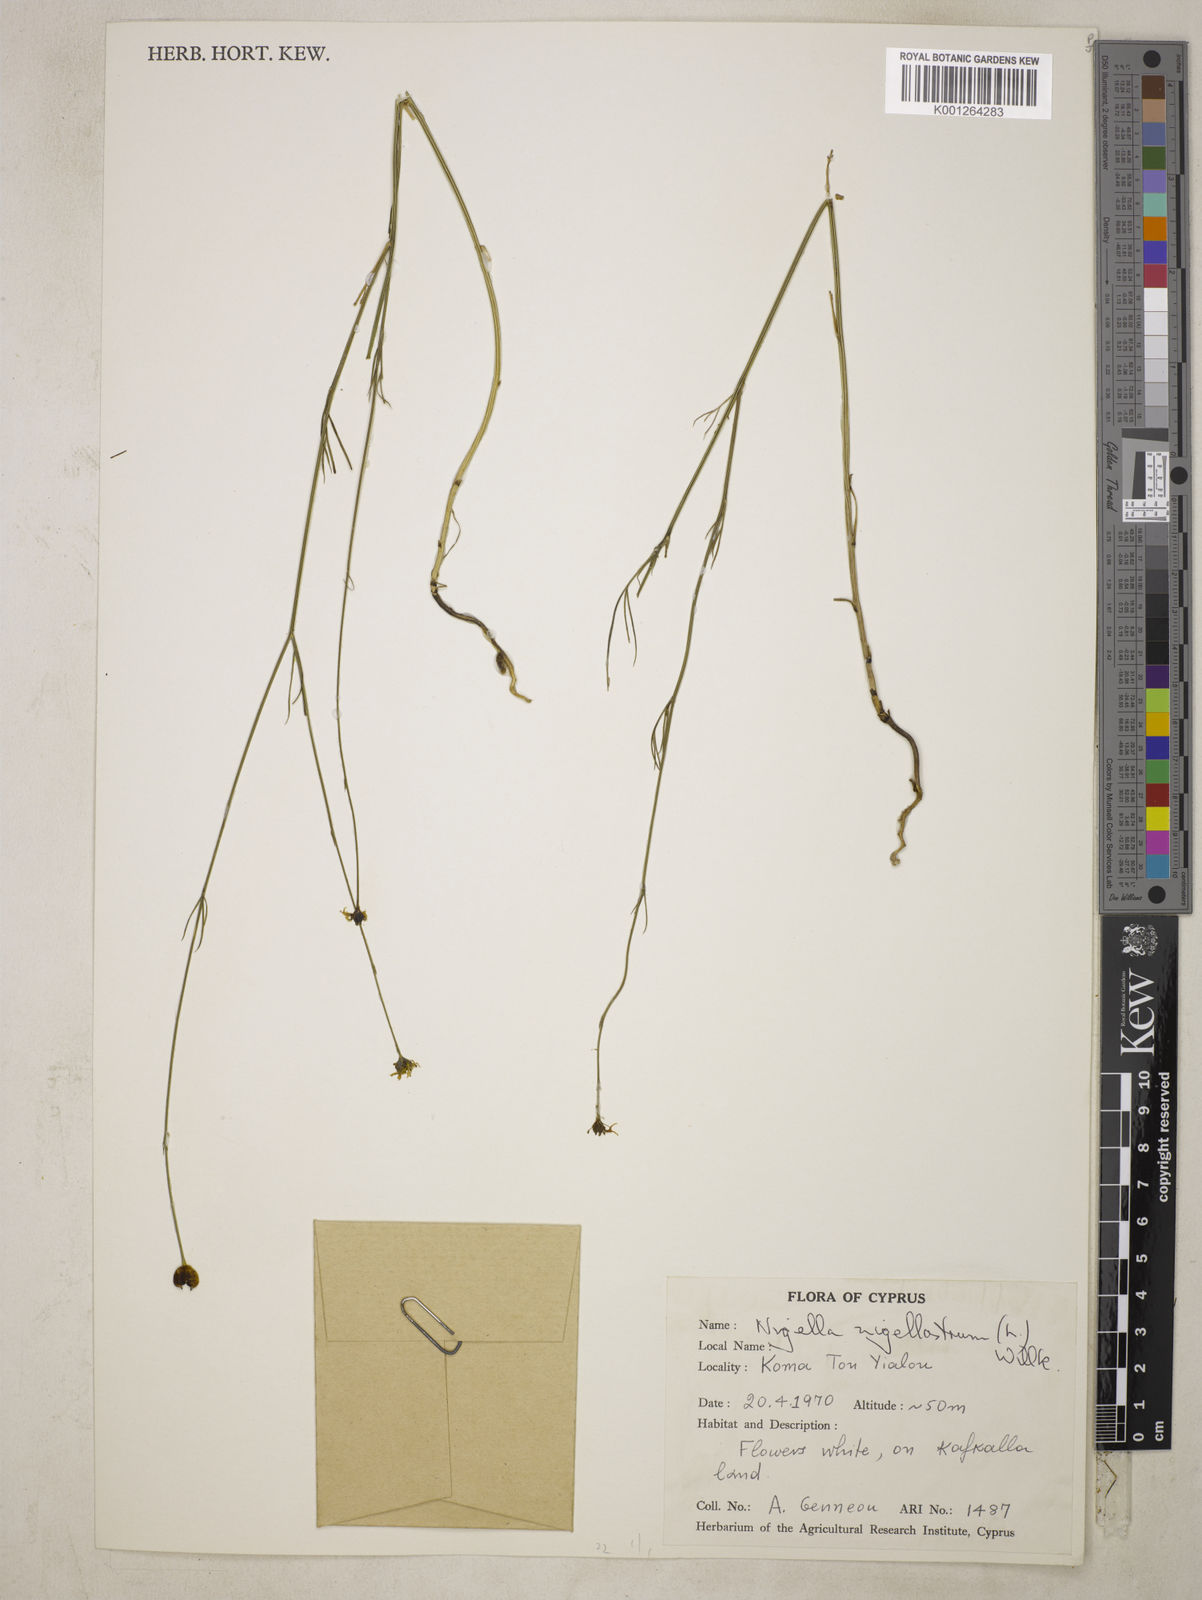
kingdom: Plantae
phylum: Tracheophyta
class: Magnoliopsida
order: Ranunculales
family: Ranunculaceae
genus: Garidella
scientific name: Garidella nigellastrum
